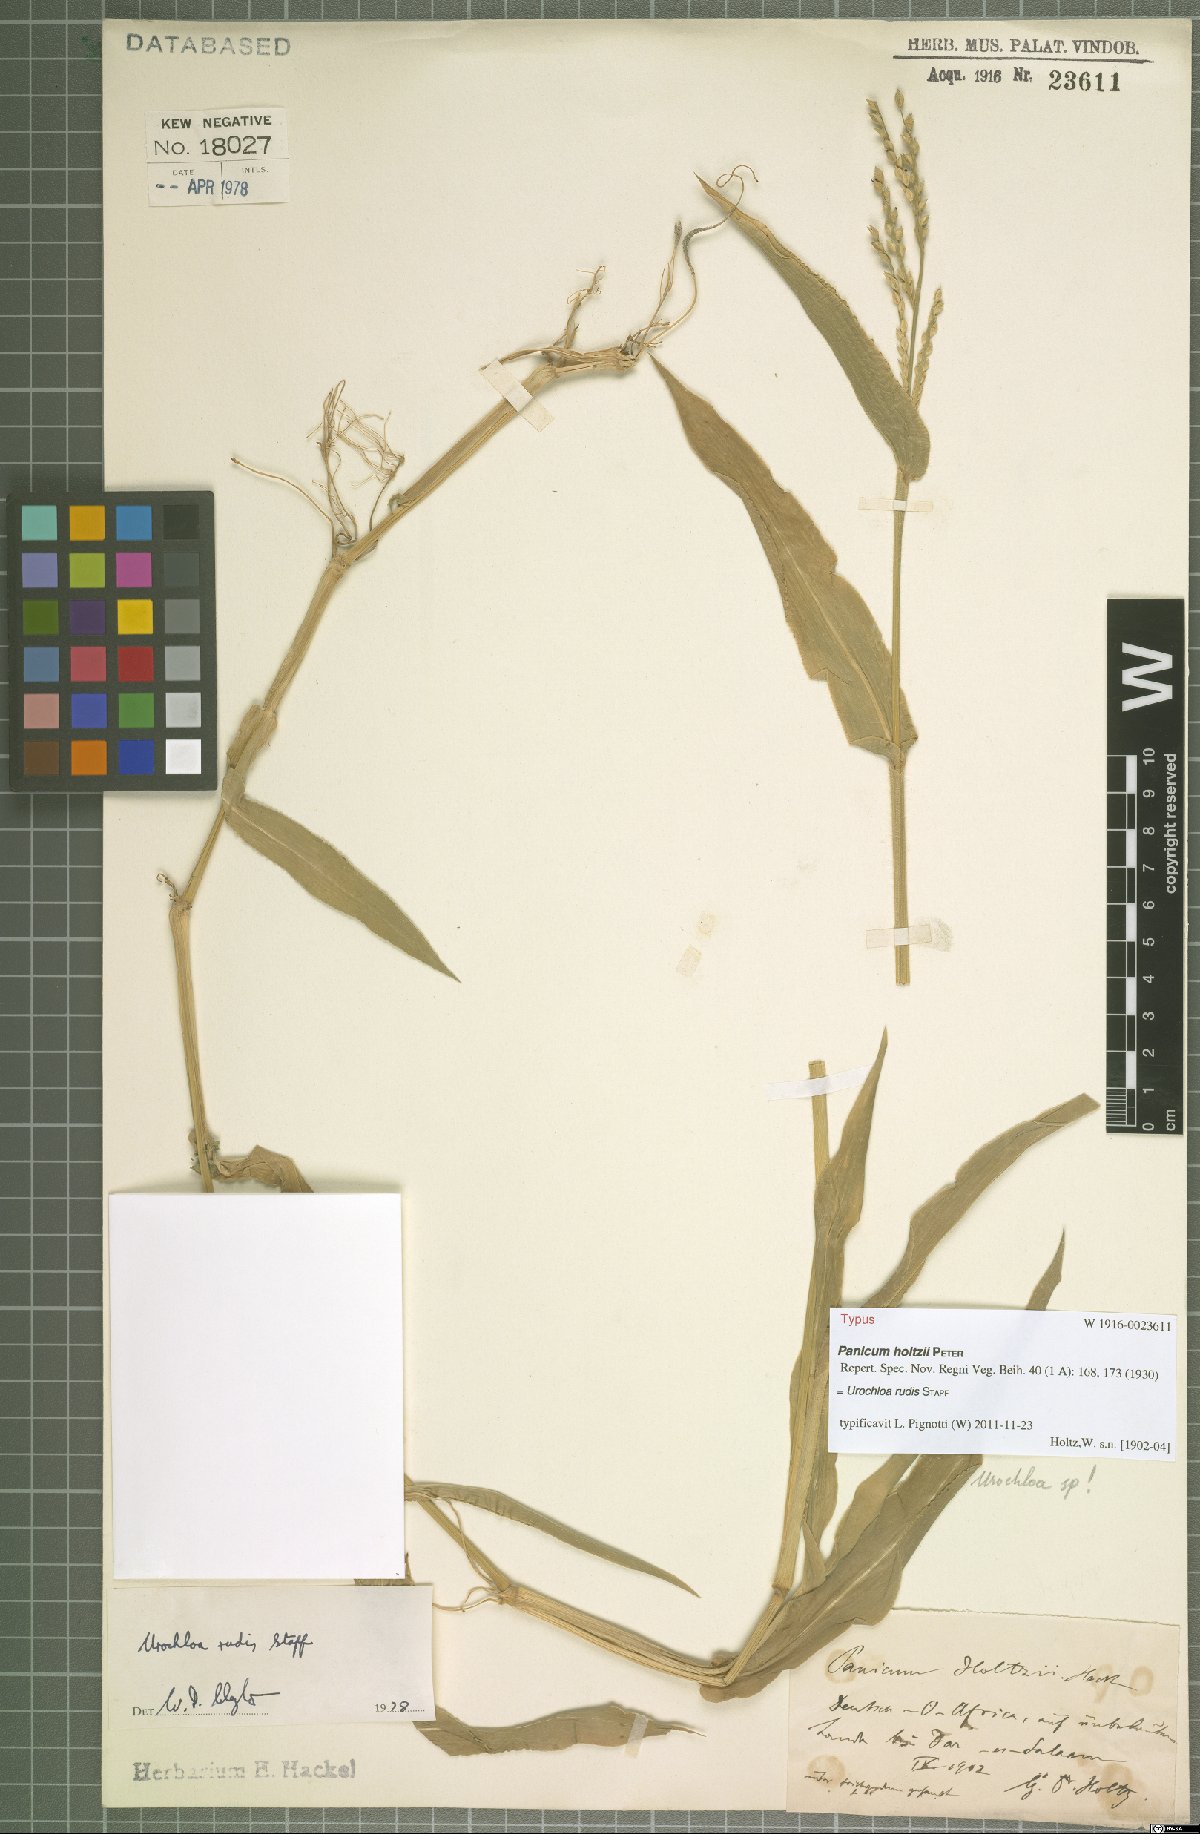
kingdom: Plantae
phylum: Tracheophyta
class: Liliopsida
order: Poales
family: Poaceae
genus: Urochloa
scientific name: Urochloa rudis
